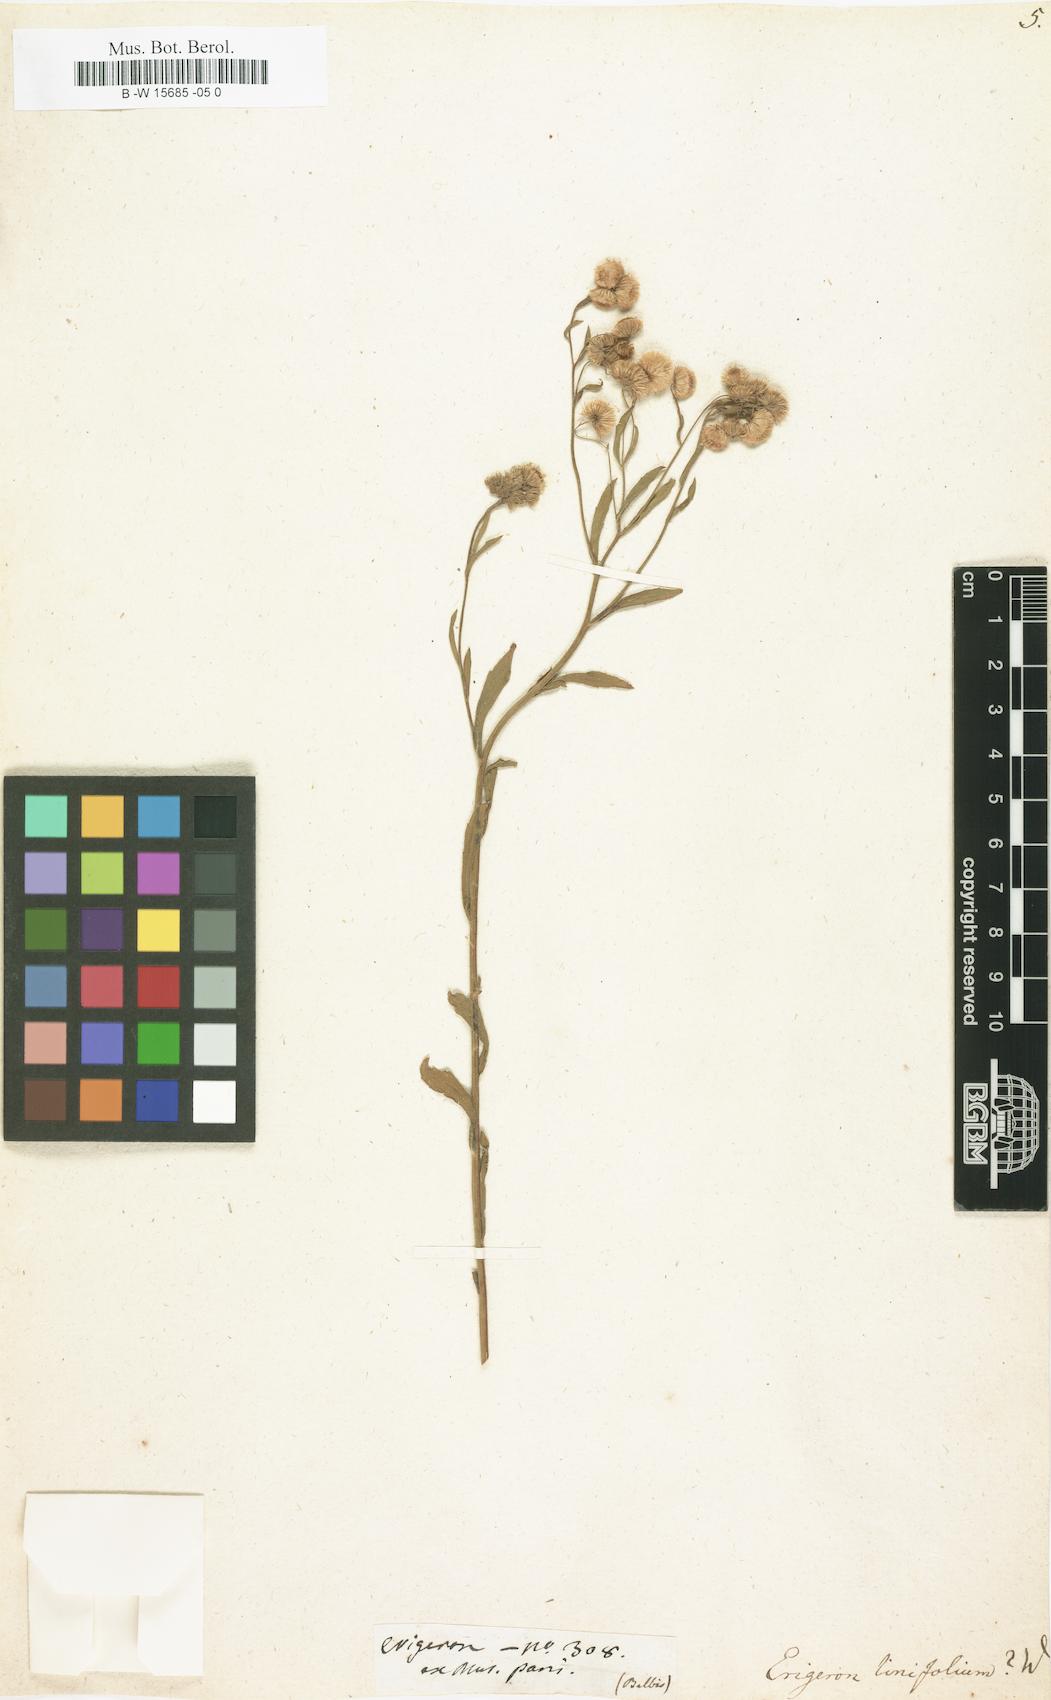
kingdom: Plantae
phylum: Tracheophyta
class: Magnoliopsida
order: Asterales
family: Asteraceae
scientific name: Asteraceae
